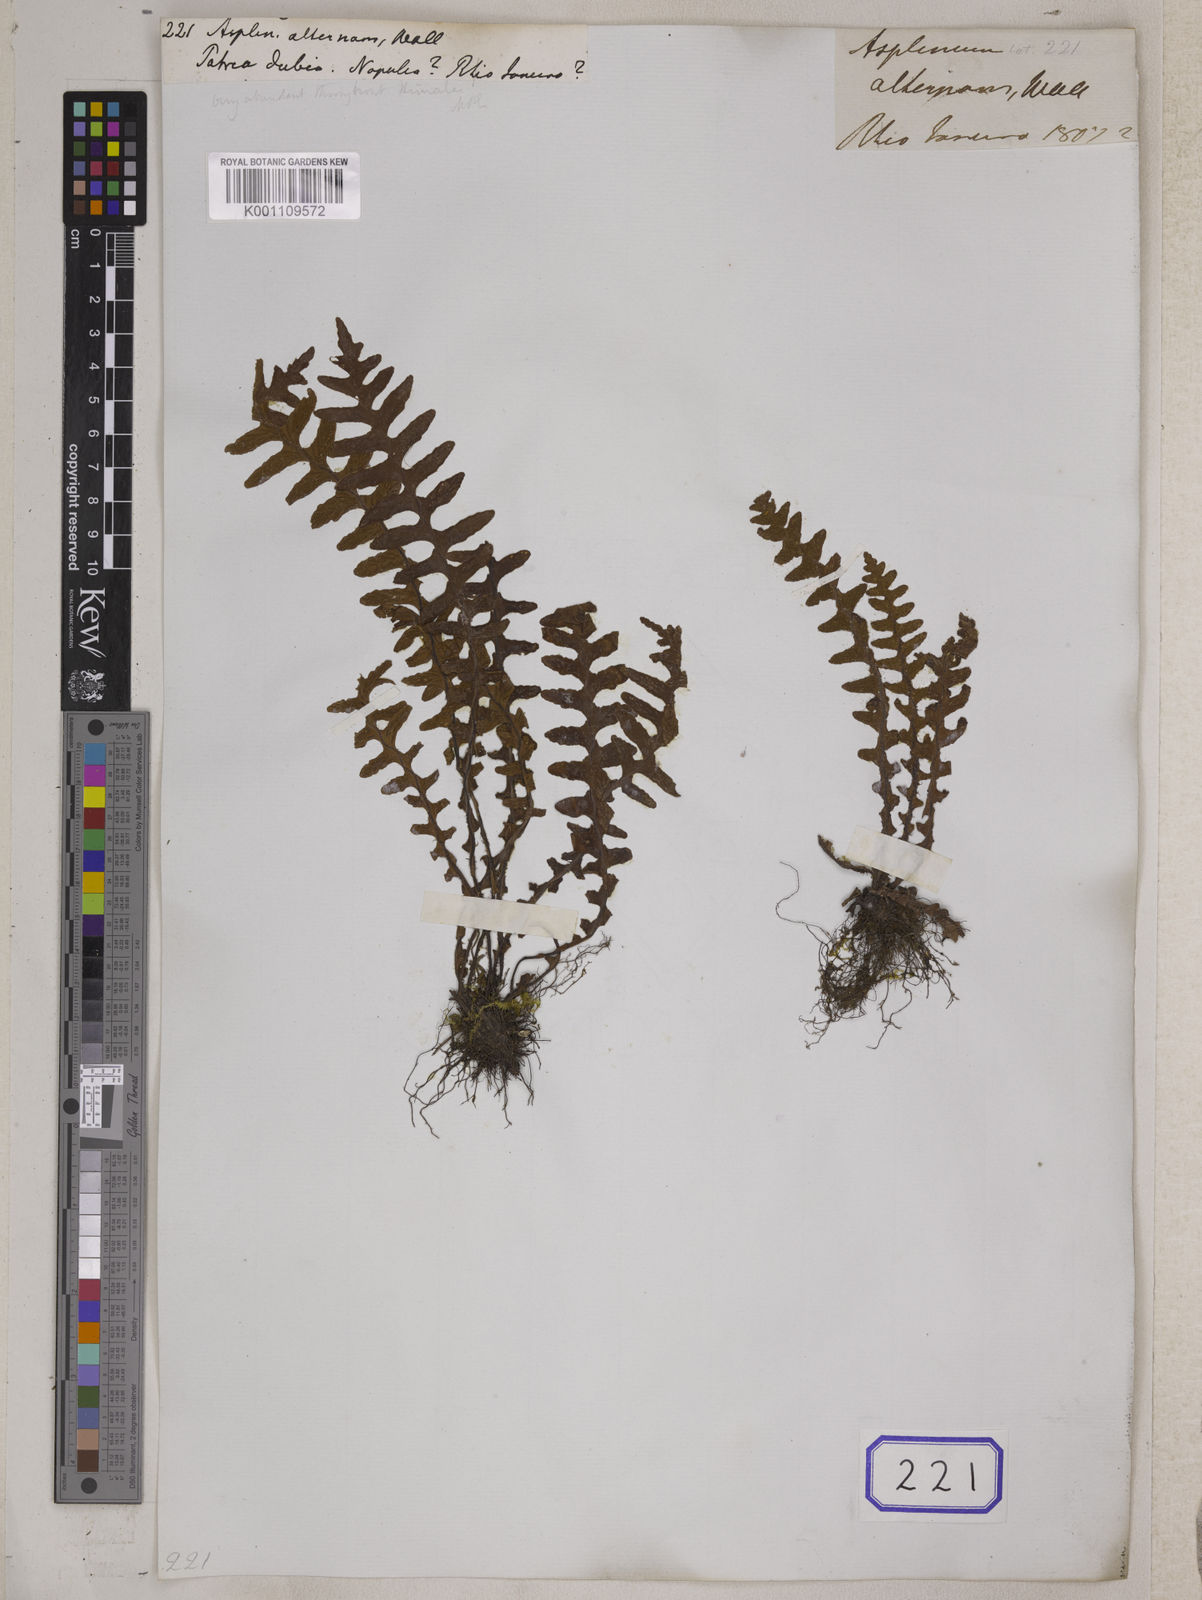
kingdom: Plantae
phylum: Tracheophyta
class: Polypodiopsida
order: Polypodiales
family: Aspleniaceae
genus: Asplenium
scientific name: Asplenium dalhousieae
